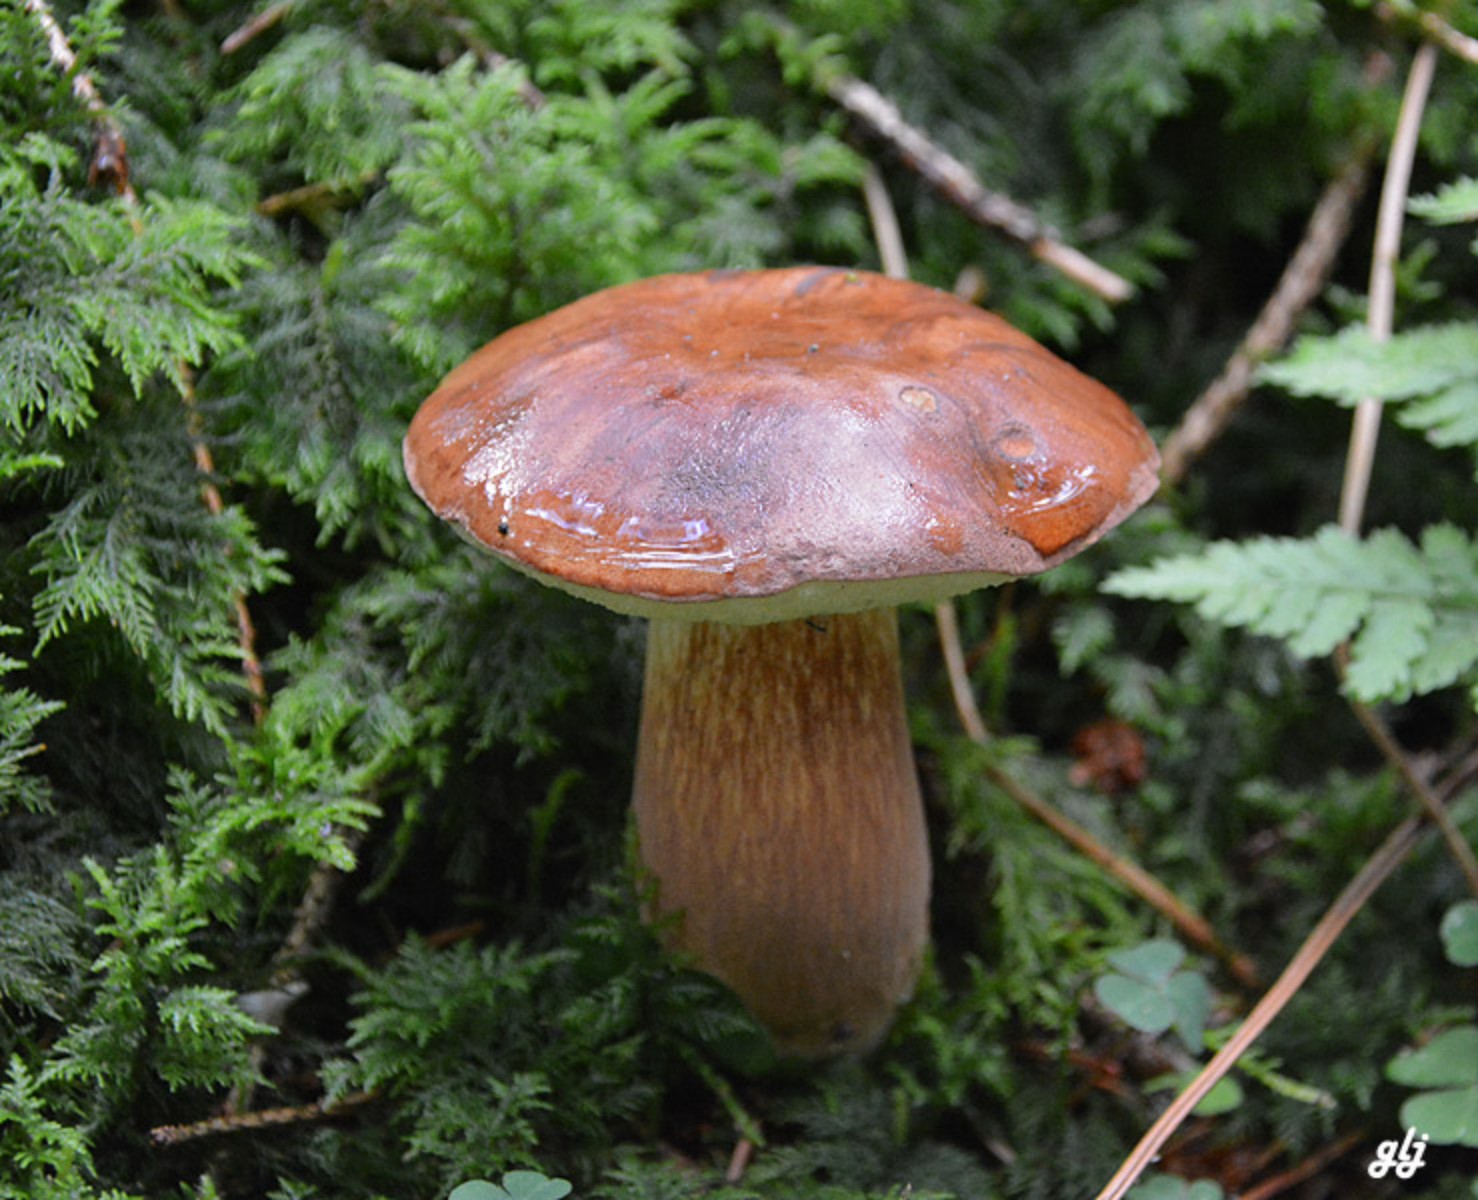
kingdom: Fungi
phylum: Basidiomycota
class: Agaricomycetes
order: Boletales
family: Boletaceae
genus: Imleria
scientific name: Imleria badia
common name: brunstokket rørhat
